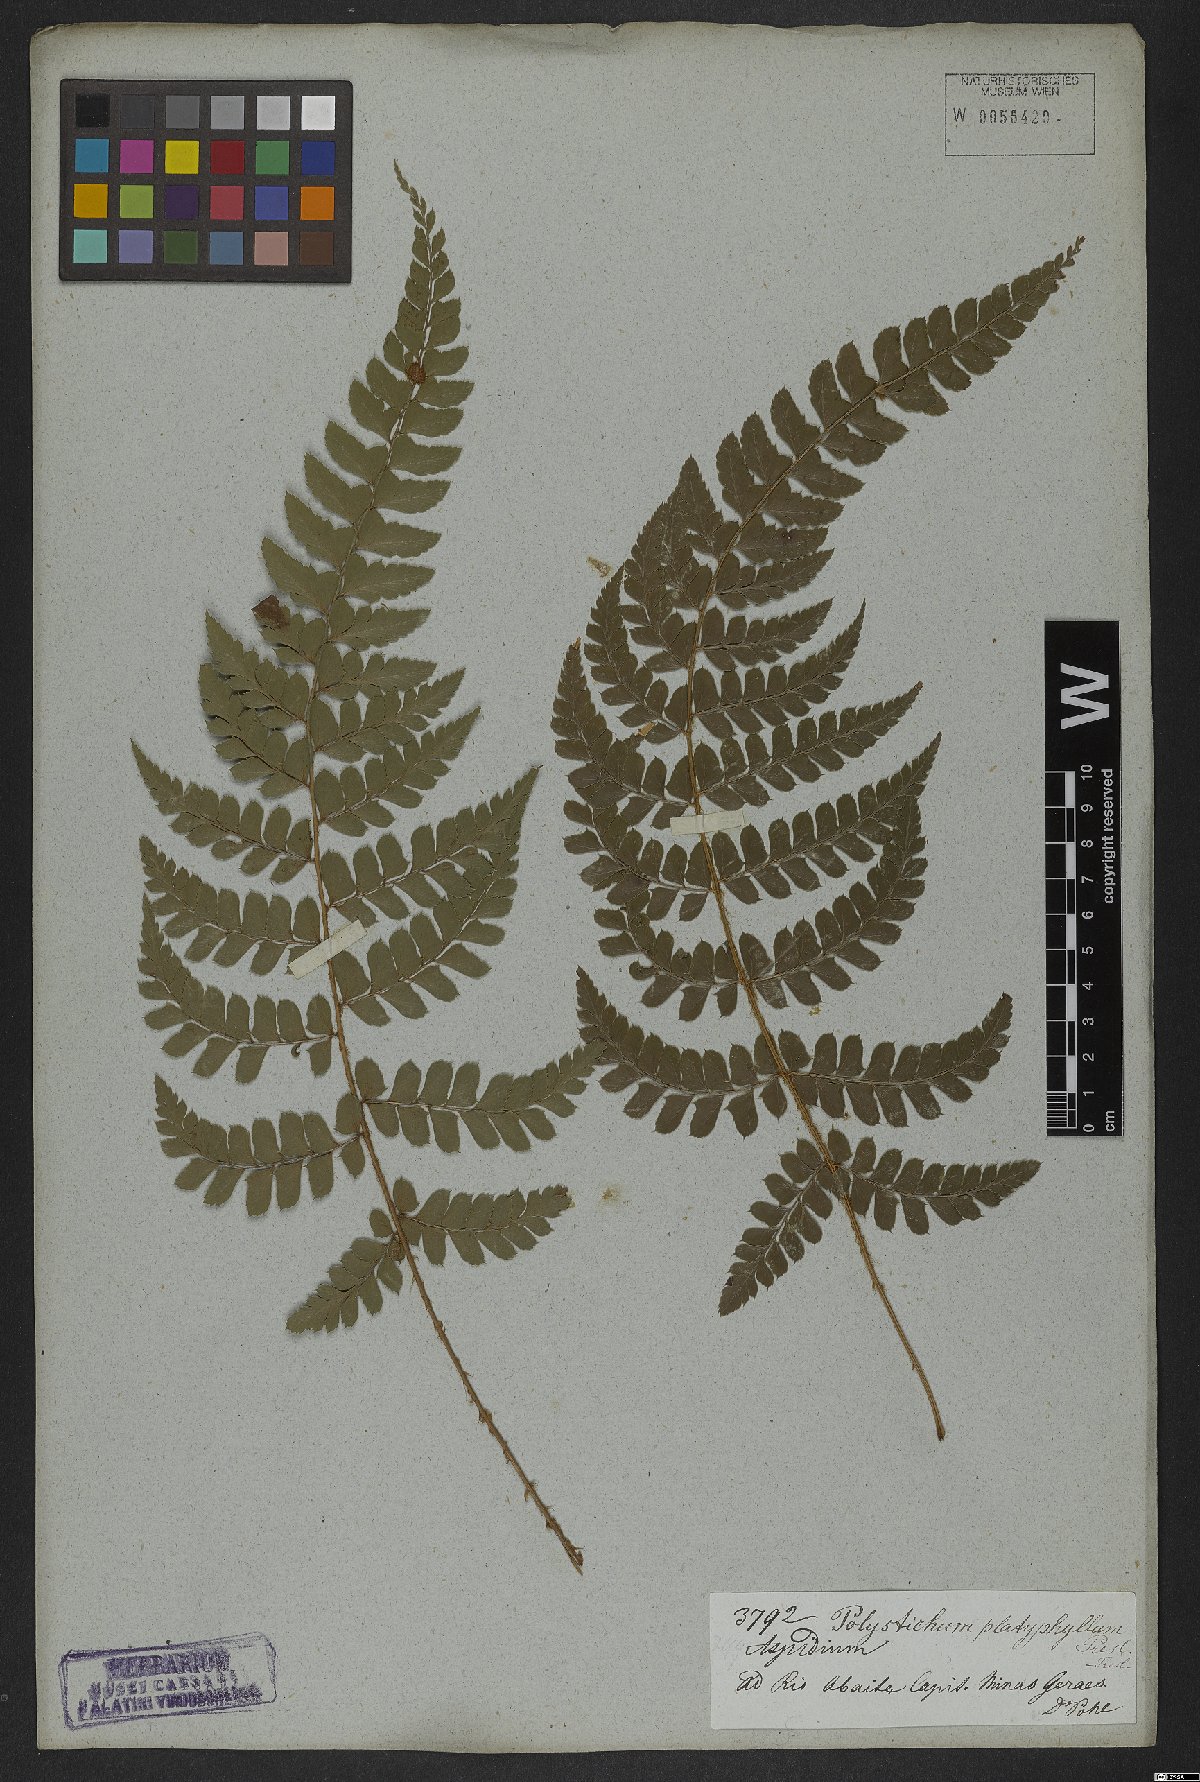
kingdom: Plantae
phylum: Tracheophyta
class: Polypodiopsida
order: Polypodiales
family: Dryopteridaceae
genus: Polystichum
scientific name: Polystichum aculeatum
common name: Hard shield-fern
